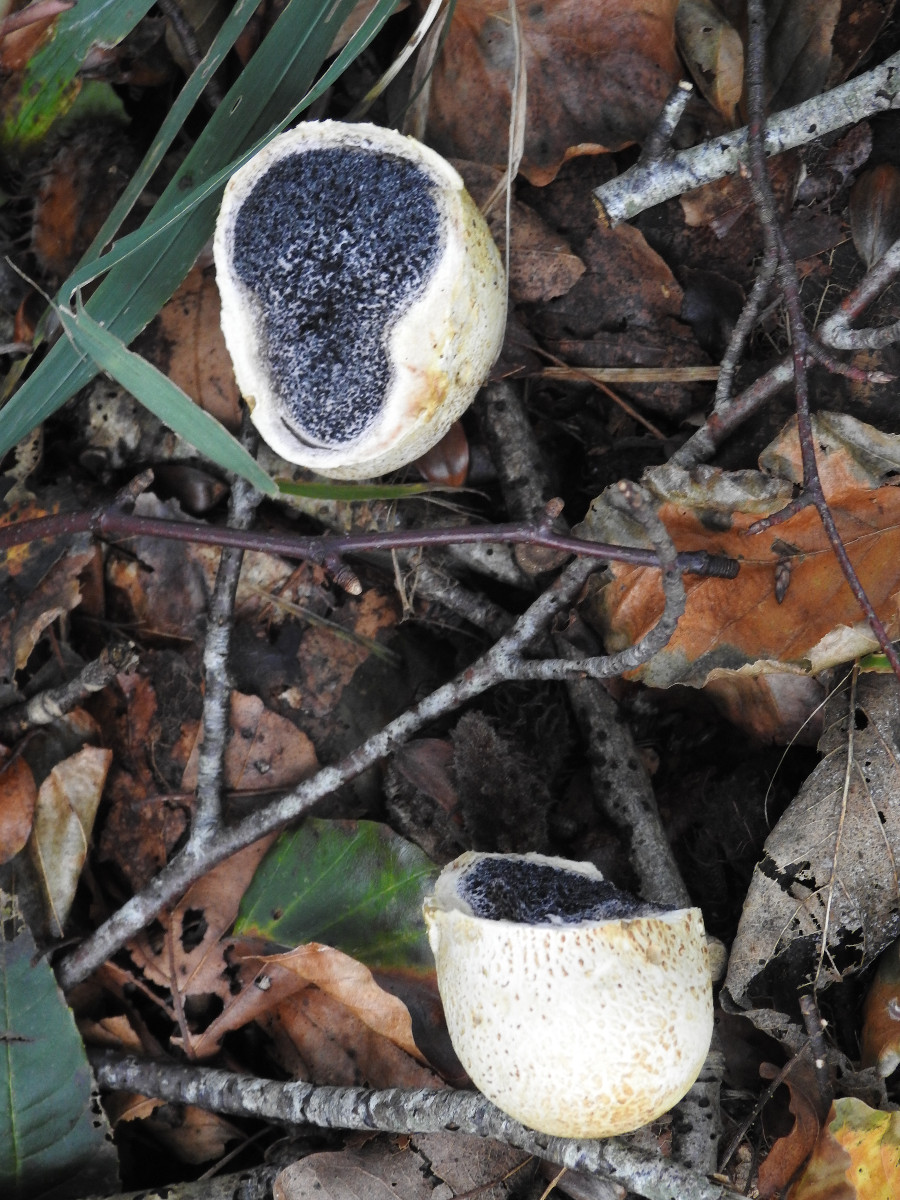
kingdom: Fungi
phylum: Basidiomycota
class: Agaricomycetes
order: Boletales
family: Sclerodermataceae
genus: Scleroderma
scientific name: Scleroderma citrinum
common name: almindelig bruskbold
